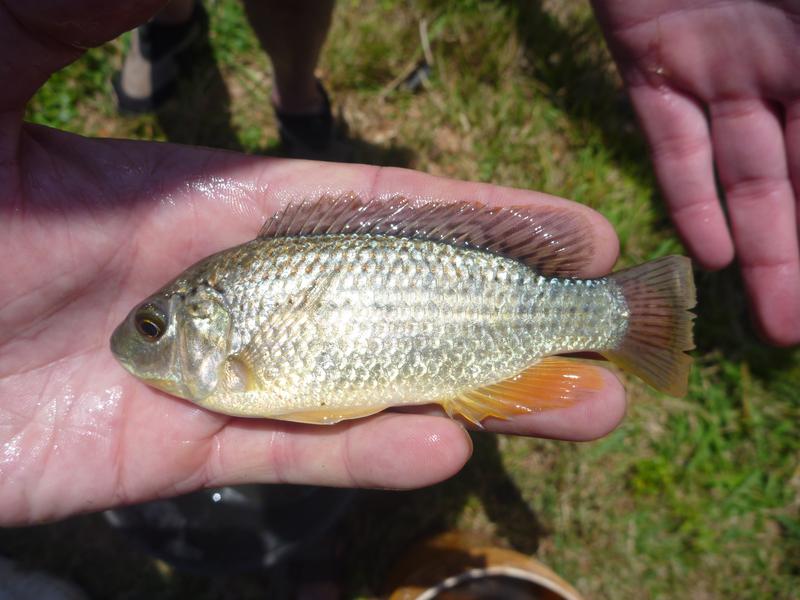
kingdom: Animalia
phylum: Chordata
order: Perciformes
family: Cichlidae
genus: Oreochromis
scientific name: Oreochromis
